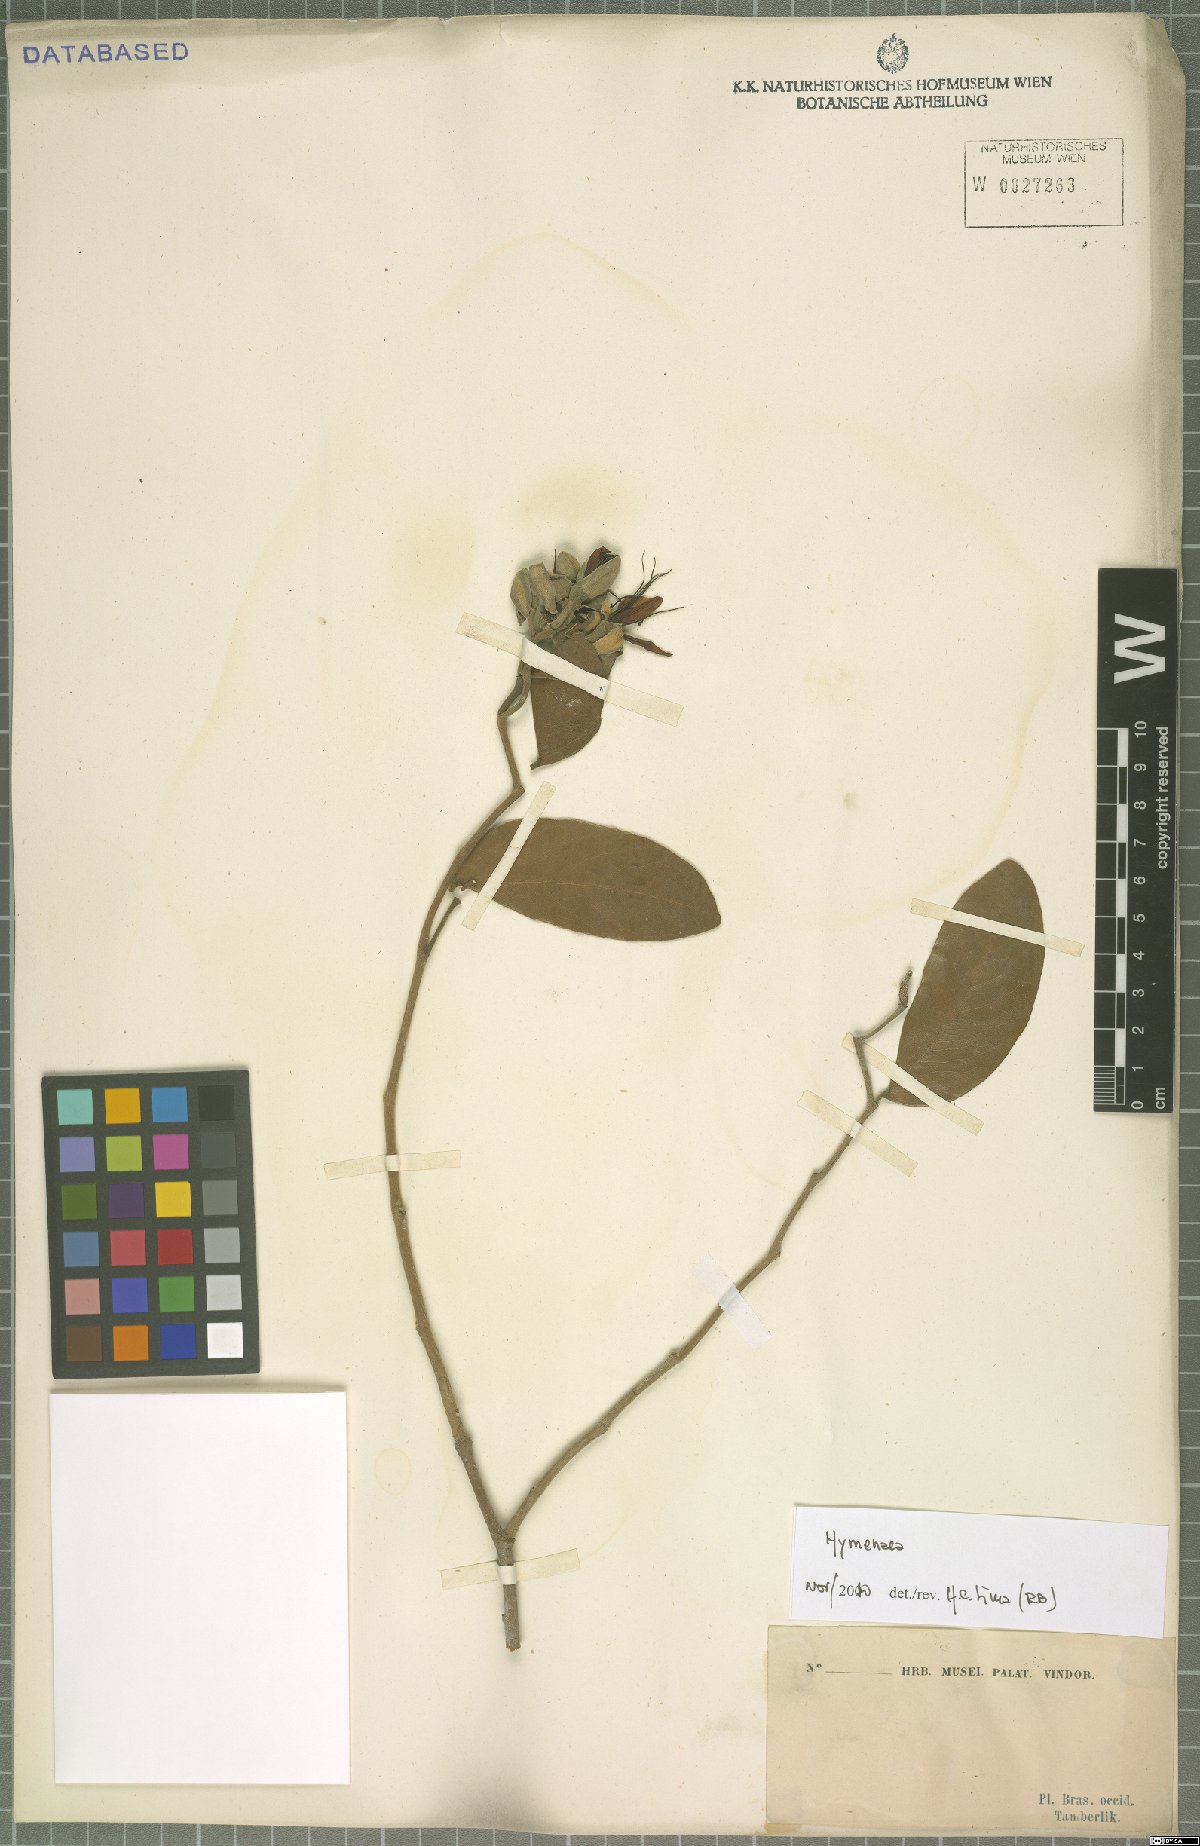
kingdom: Plantae
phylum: Tracheophyta
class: Magnoliopsida
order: Fabales
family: Fabaceae
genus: Hymenaea
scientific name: Hymenaea
